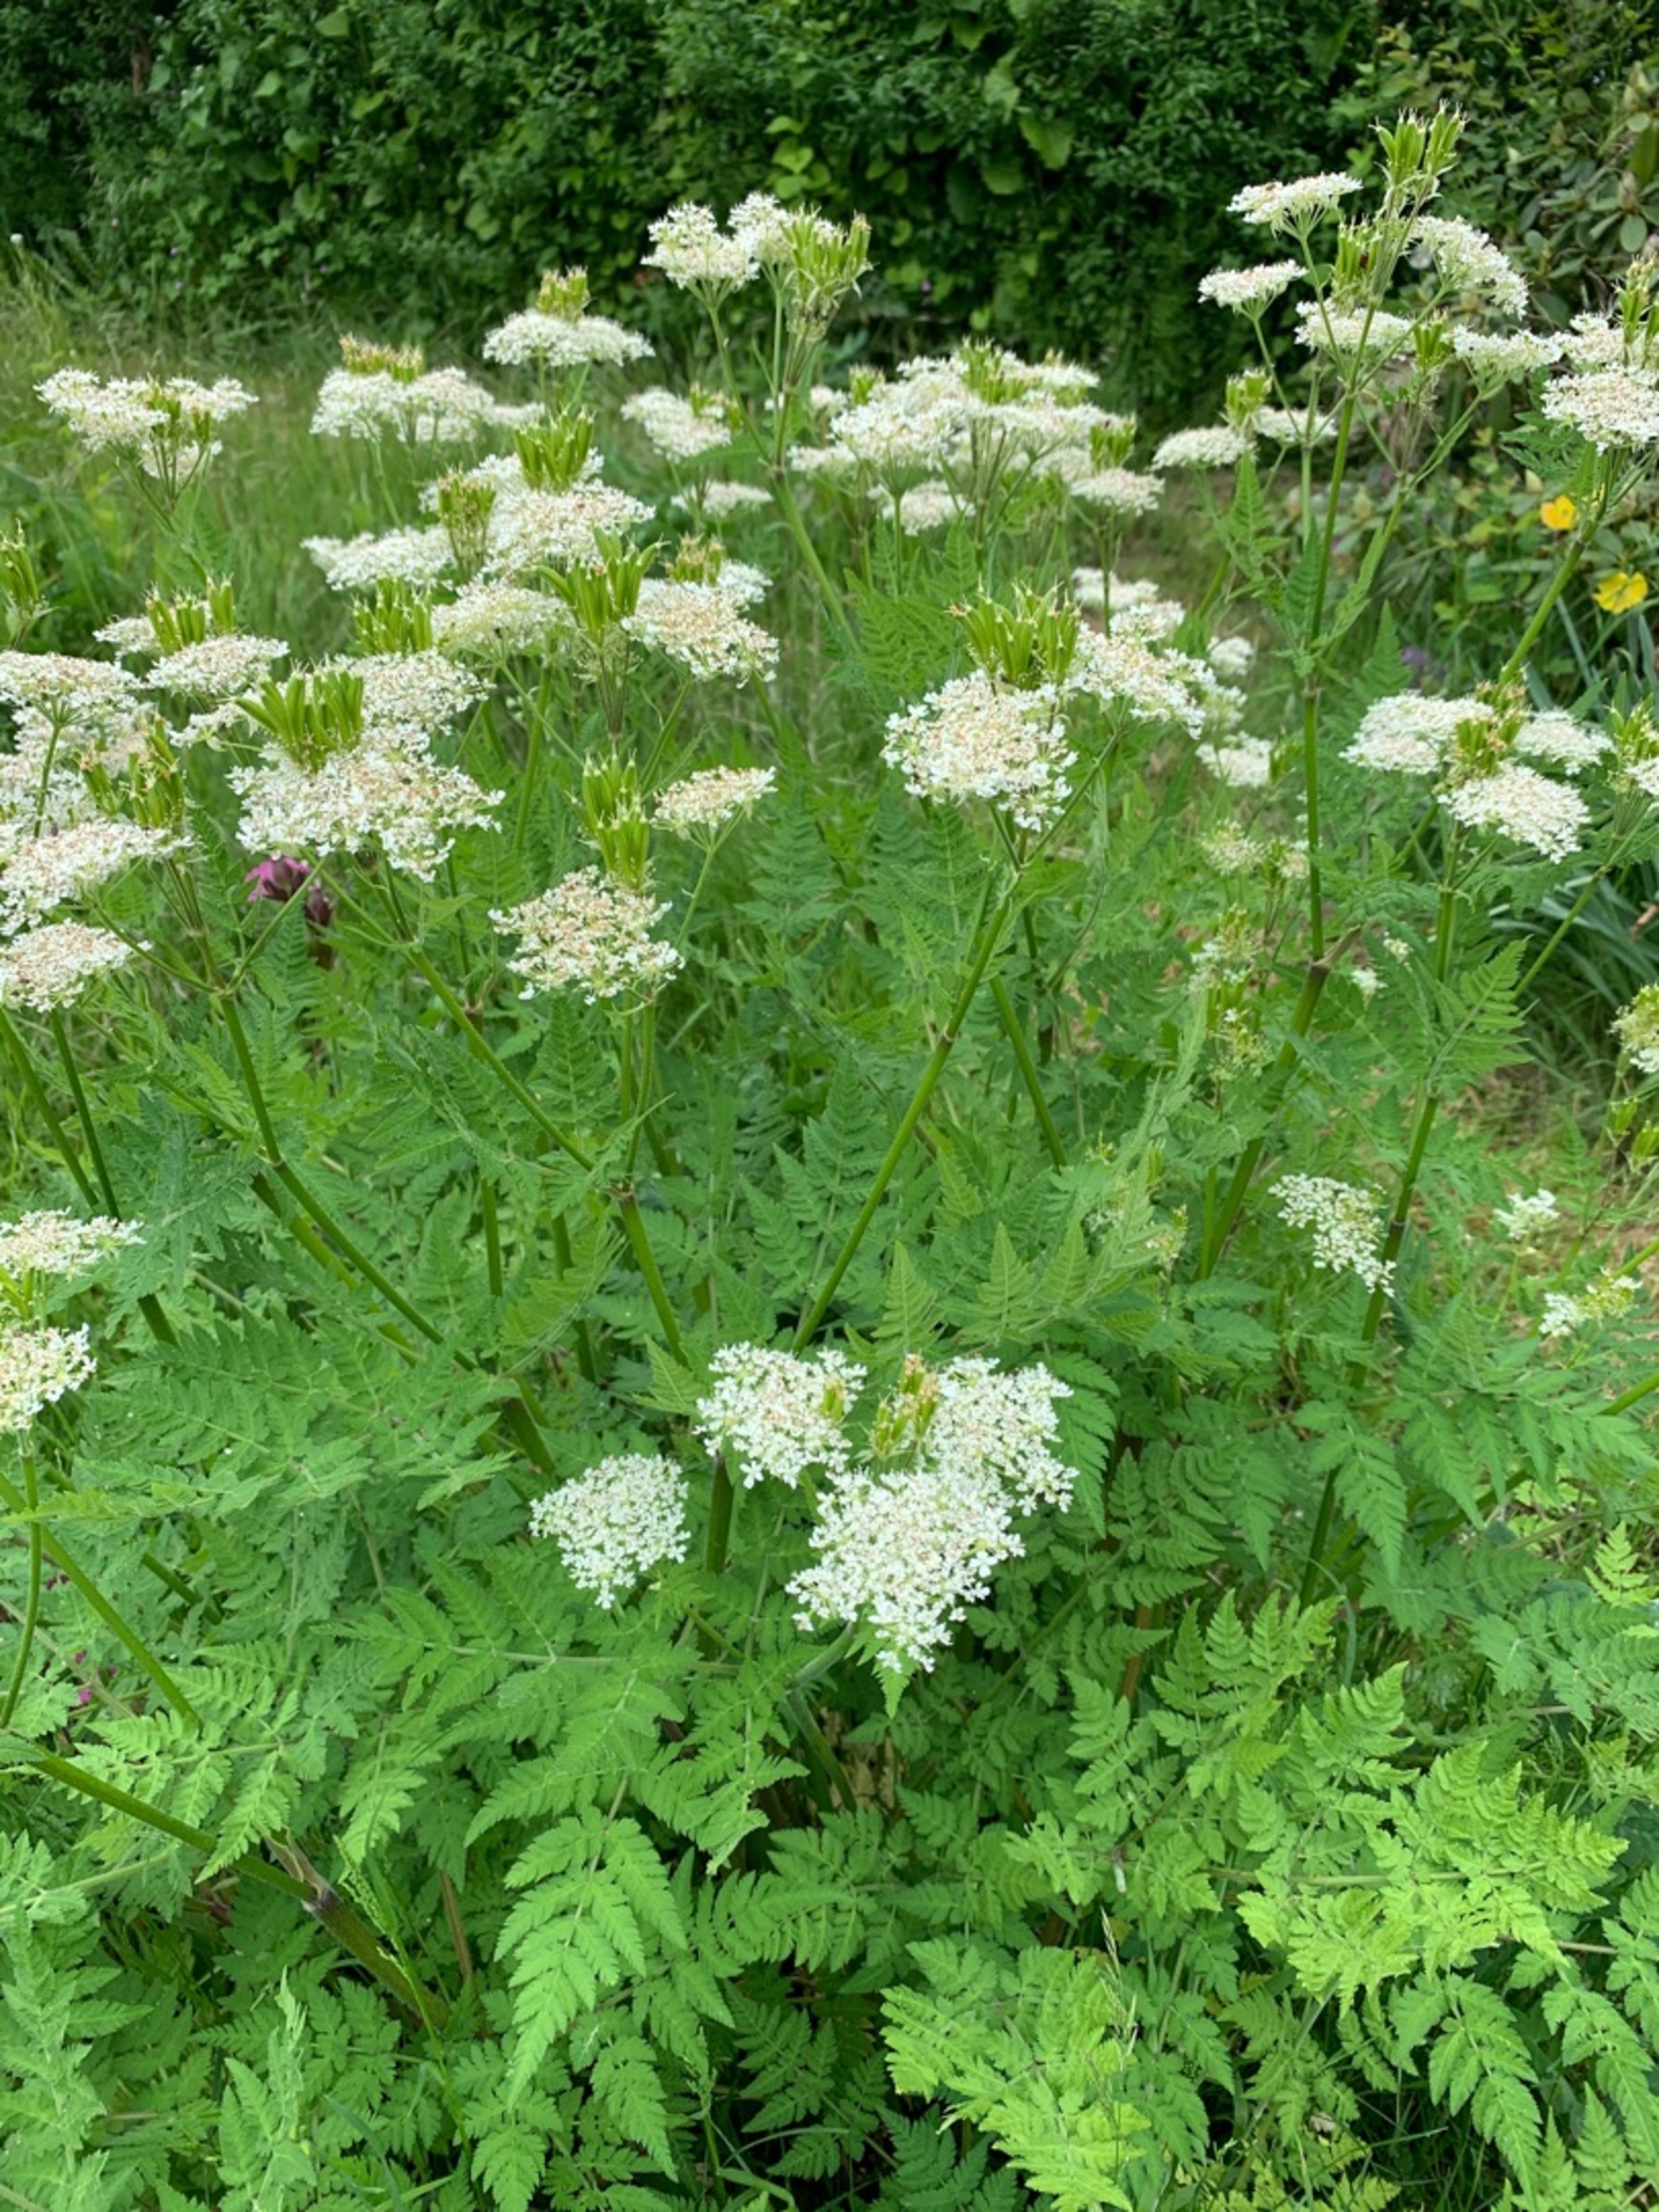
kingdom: Plantae
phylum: Tracheophyta
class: Magnoliopsida
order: Apiales
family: Apiaceae
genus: Myrrhis
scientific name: Myrrhis odorata
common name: Sødskærm
